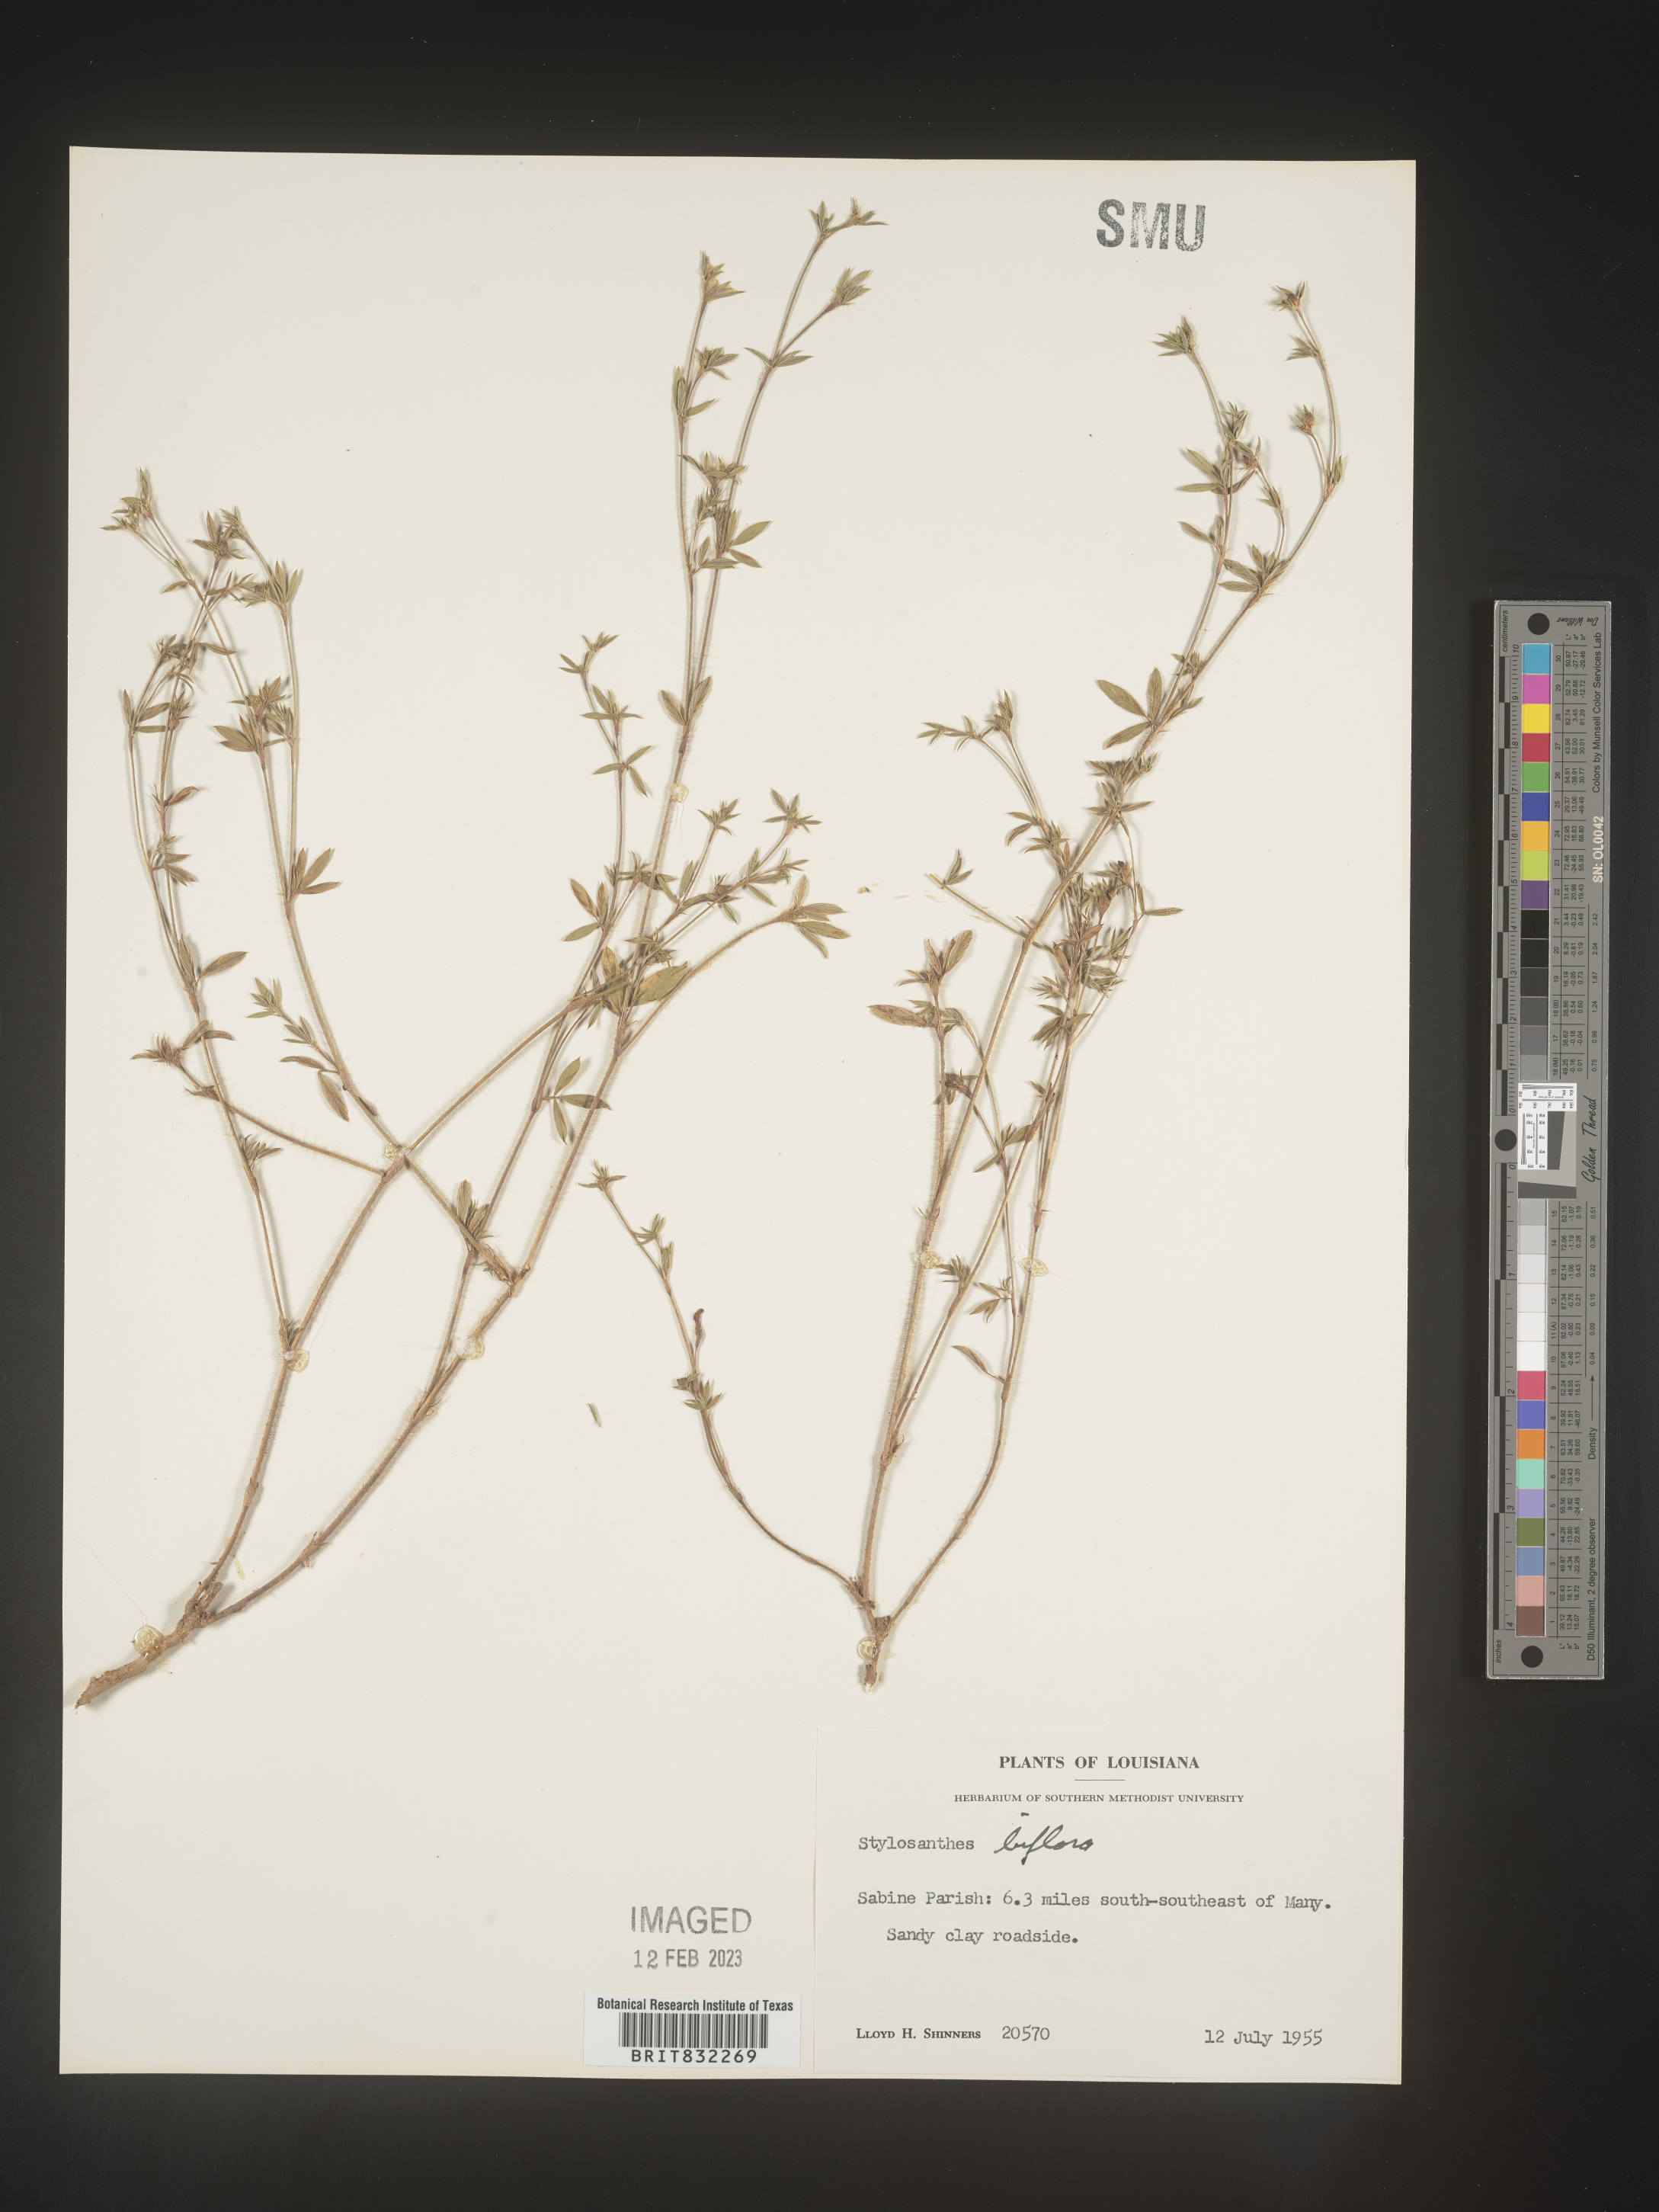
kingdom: Plantae
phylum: Tracheophyta
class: Magnoliopsida
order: Fabales
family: Fabaceae
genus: Stylosanthes
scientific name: Stylosanthes biflora
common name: Two-flower pencil-flower
